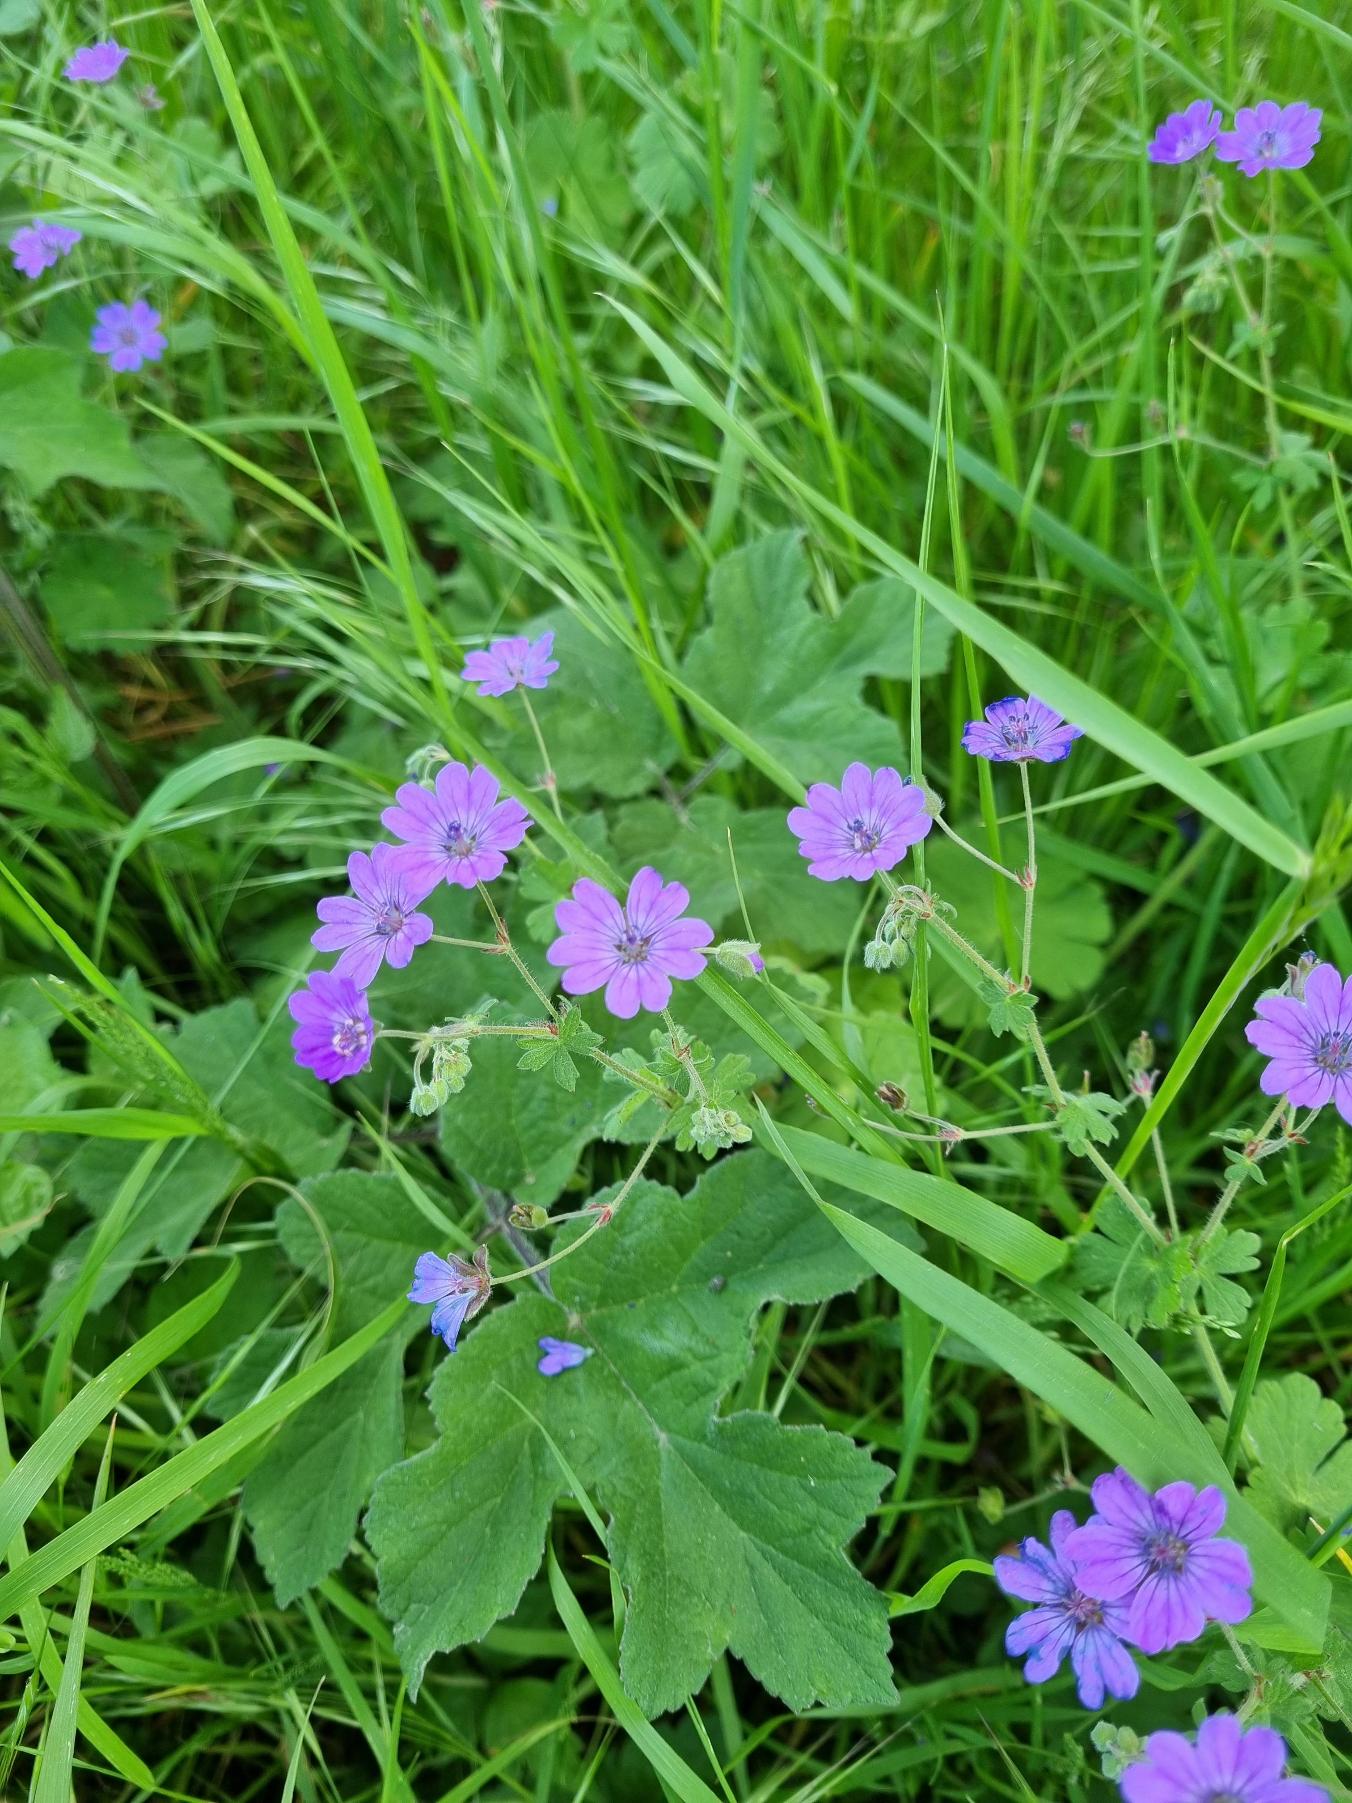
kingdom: Plantae
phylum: Tracheophyta
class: Magnoliopsida
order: Geraniales
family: Geraniaceae
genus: Geranium
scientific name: Geranium pyrenaicum
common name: Pyrenæisk storkenæb
